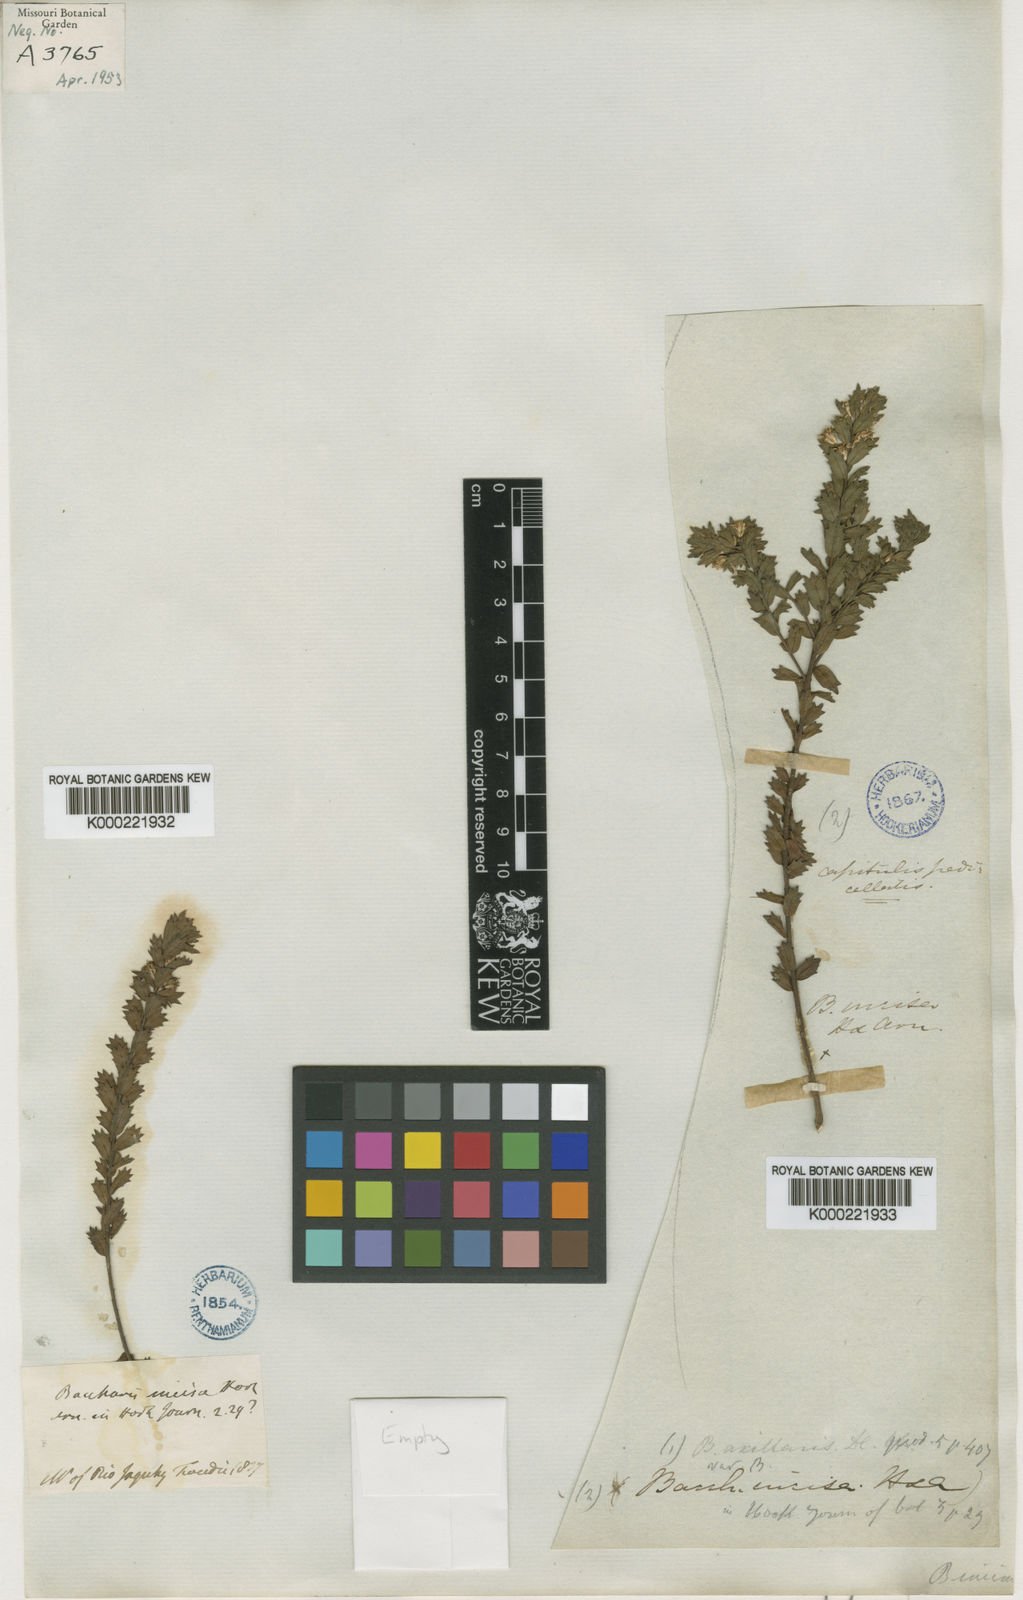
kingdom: Plantae
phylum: Tracheophyta
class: Magnoliopsida
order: Asterales
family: Asteraceae
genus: Baccharis
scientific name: Baccharis incisa
